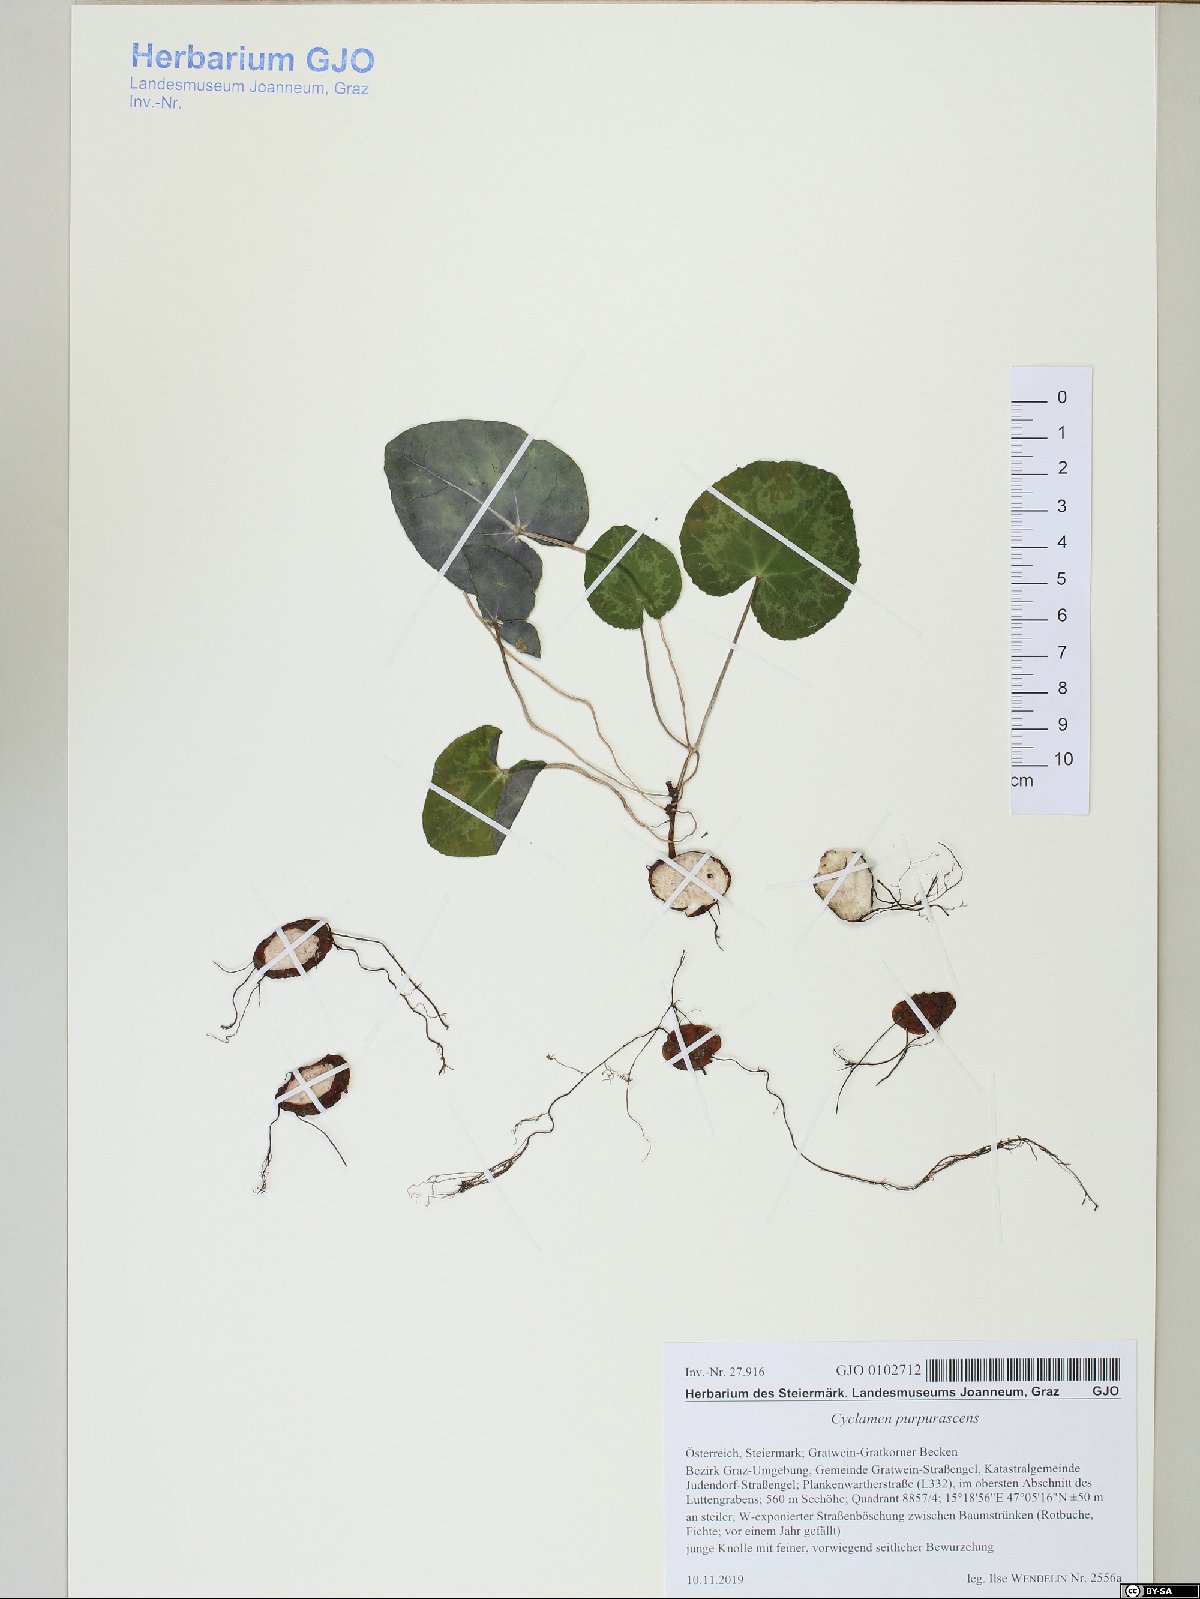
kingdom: Plantae
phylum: Tracheophyta
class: Magnoliopsida
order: Ericales
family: Primulaceae
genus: Cyclamen
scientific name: Cyclamen purpurascens
